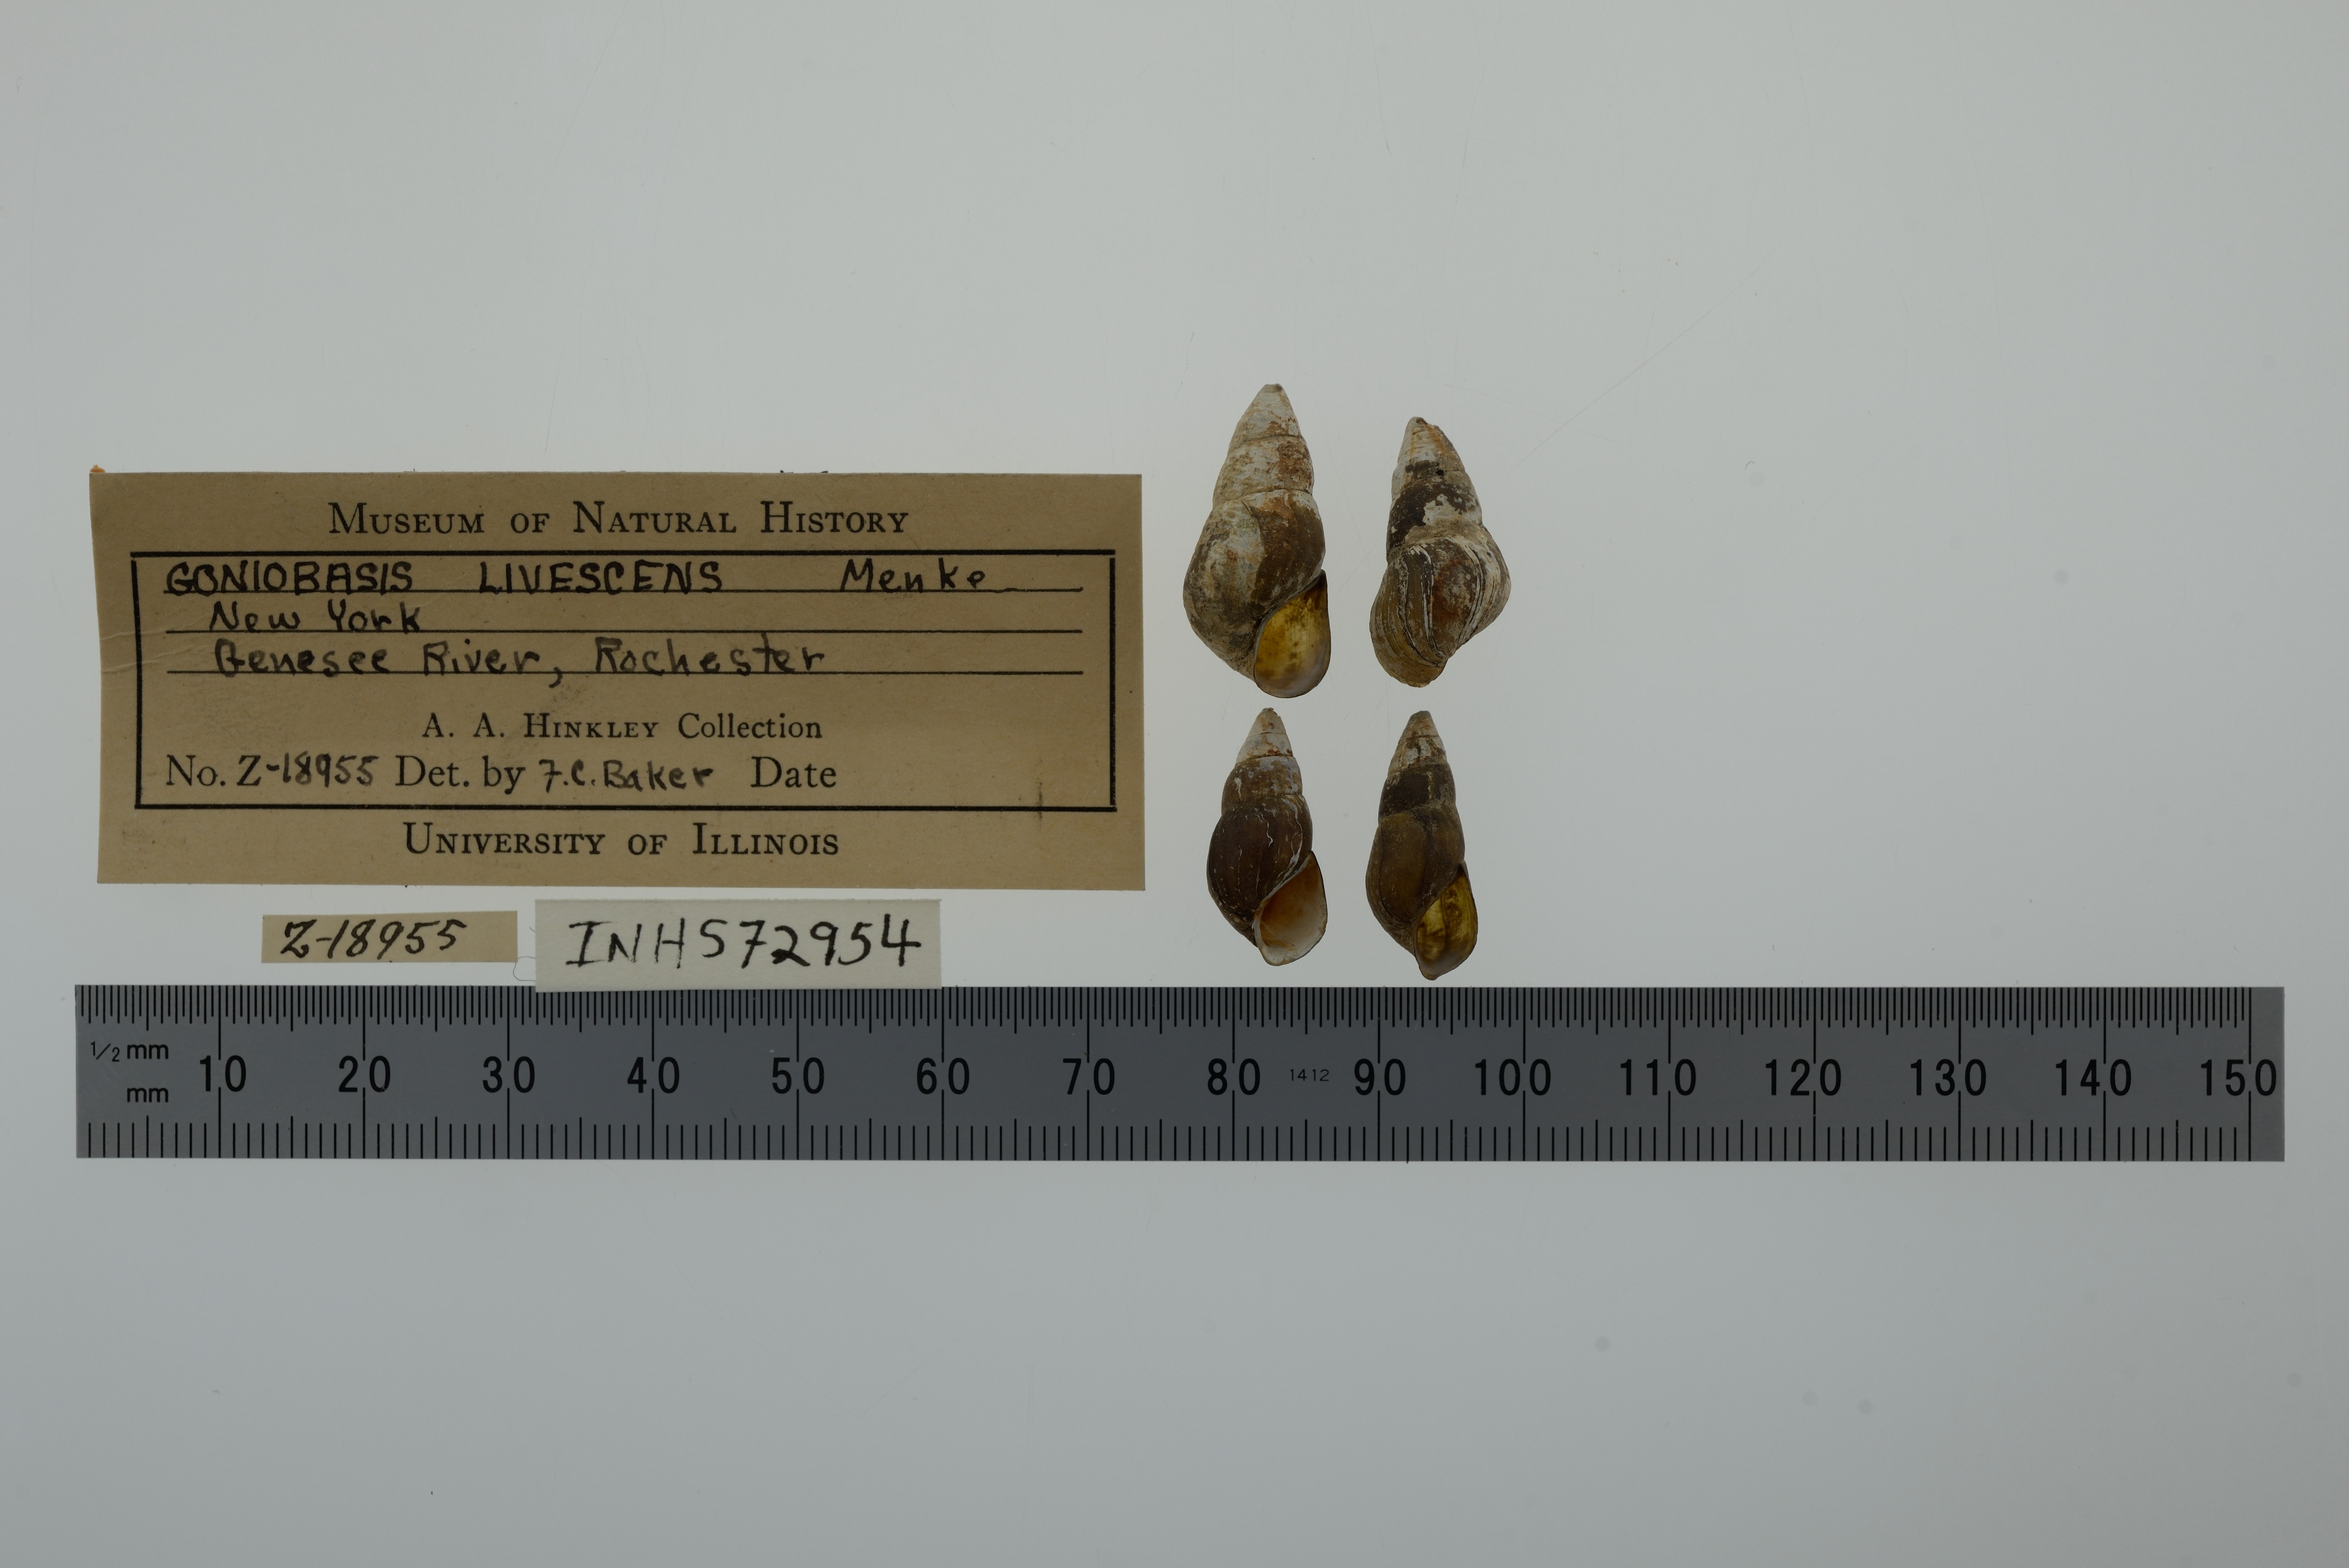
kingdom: Animalia
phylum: Mollusca
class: Gastropoda
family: Pleuroceridae
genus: Elimia
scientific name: Elimia livescens
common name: Liver elimia
